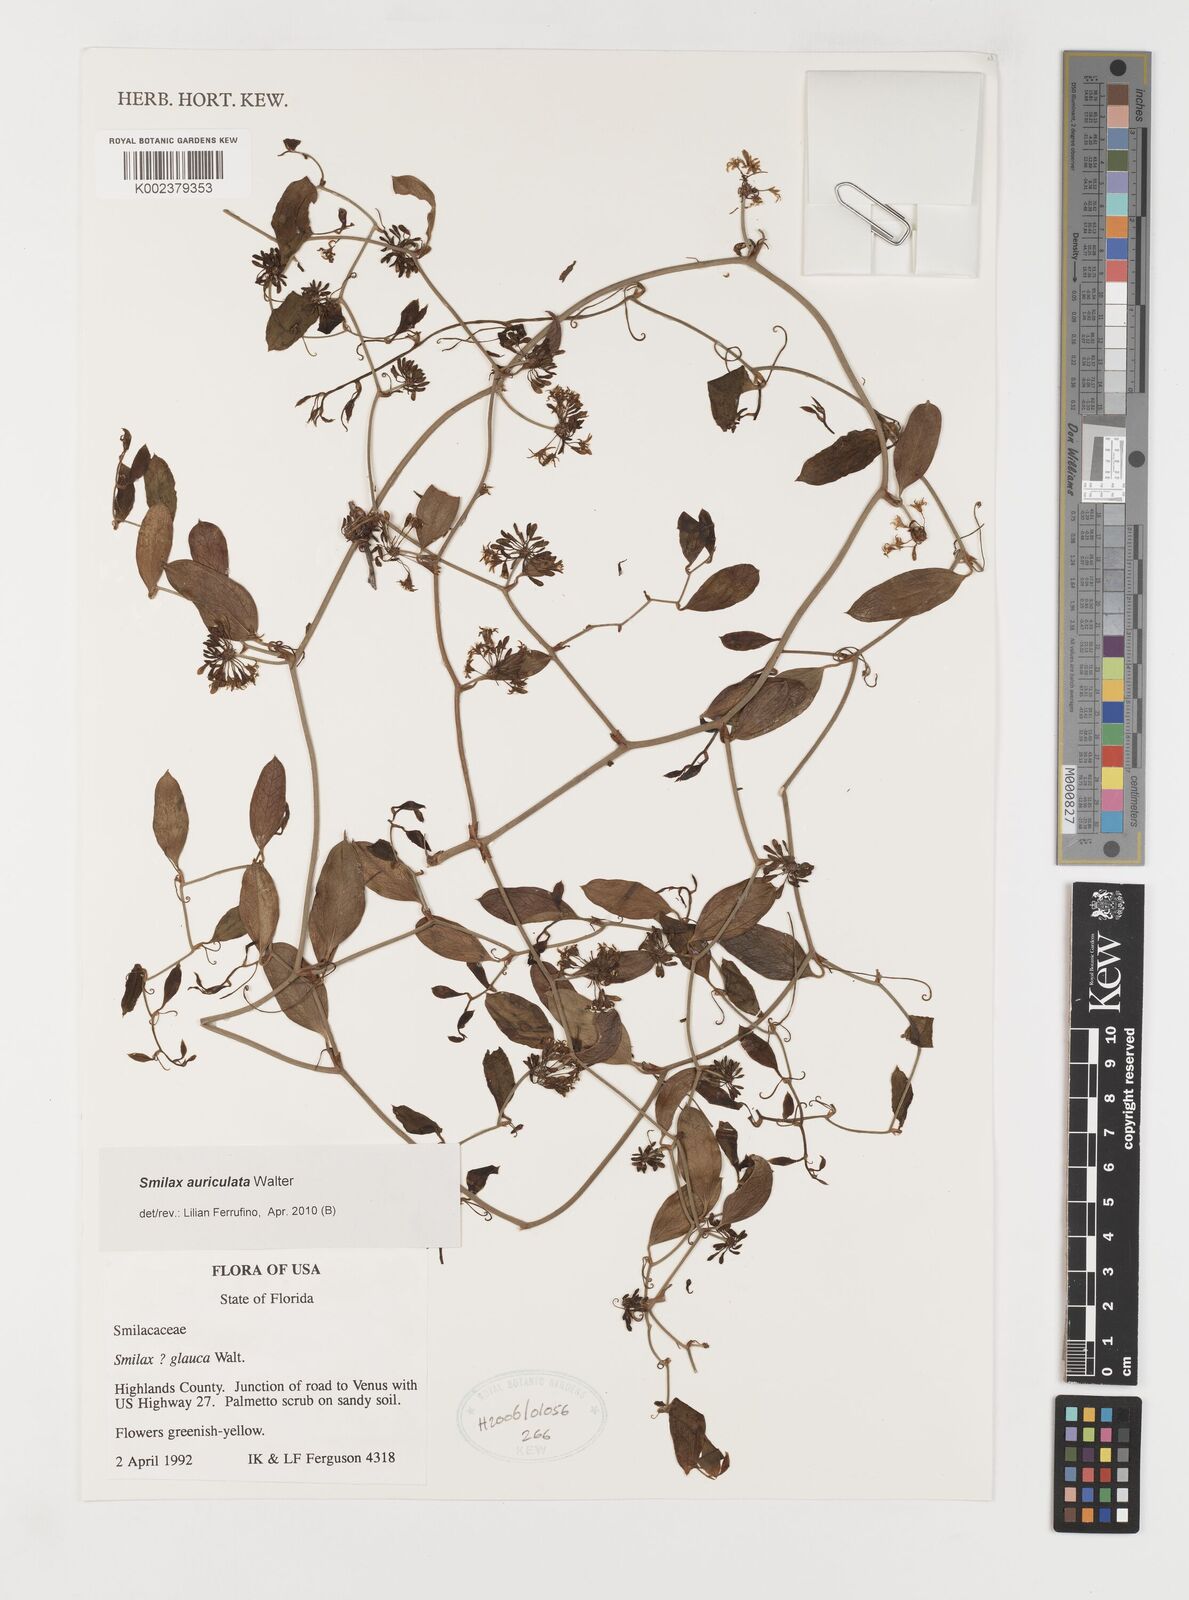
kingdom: Plantae
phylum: Tracheophyta
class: Liliopsida
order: Liliales
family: Smilacaceae
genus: Smilax
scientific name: Smilax auriculata
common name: Wild bamboo
